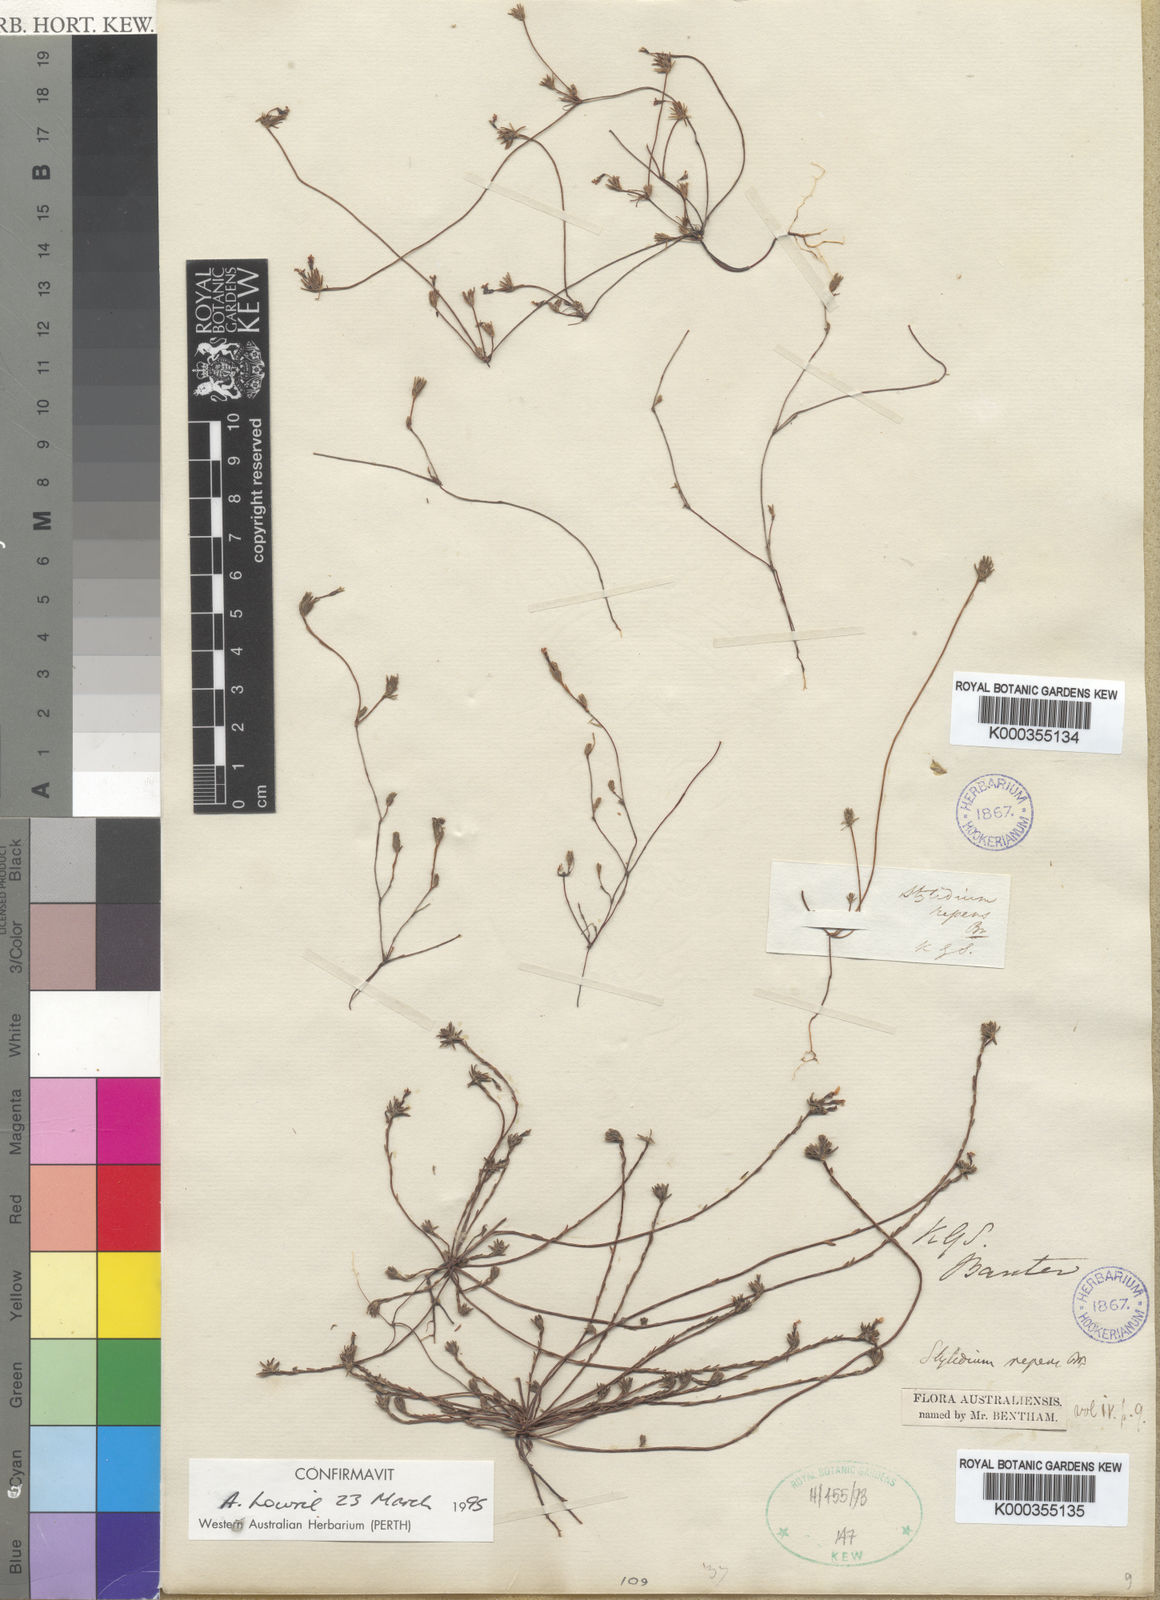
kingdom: Plantae
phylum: Tracheophyta
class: Magnoliopsida
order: Asterales
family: Stylidiaceae
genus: Stylidium
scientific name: Stylidium repens
